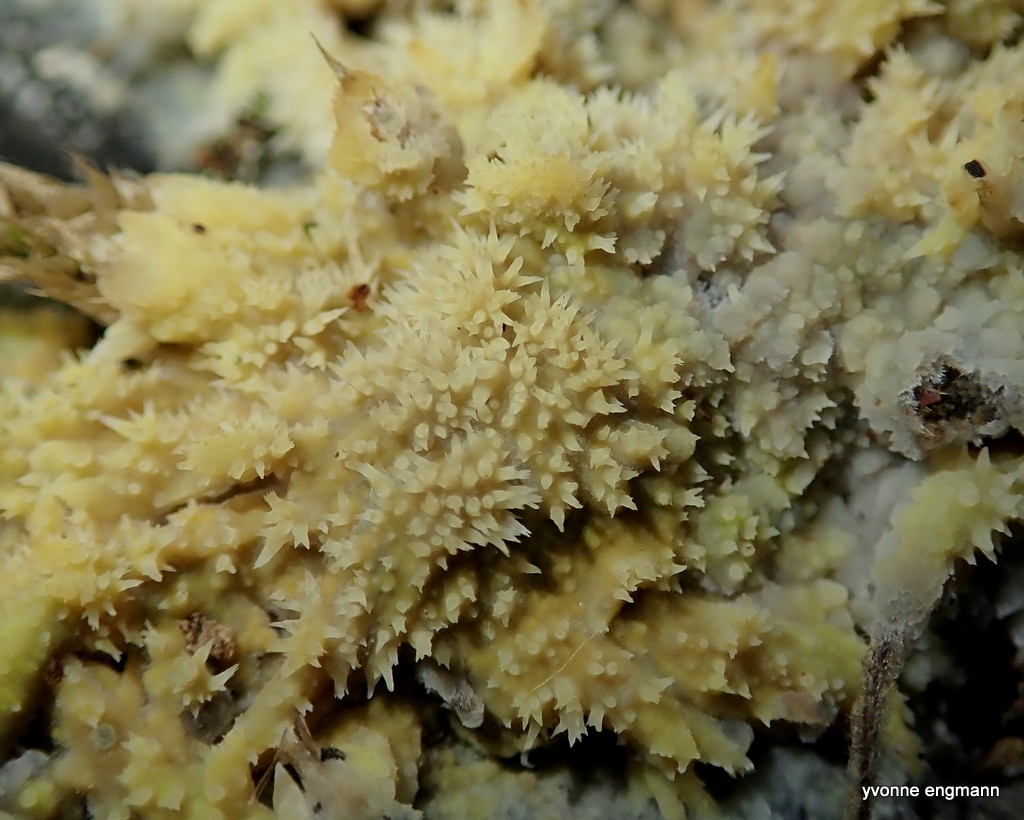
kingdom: Fungi
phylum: Basidiomycota
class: Agaricomycetes
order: Polyporales
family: Meruliaceae
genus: Mycoacia
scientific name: Mycoacia uda
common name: citrongul vokspig
